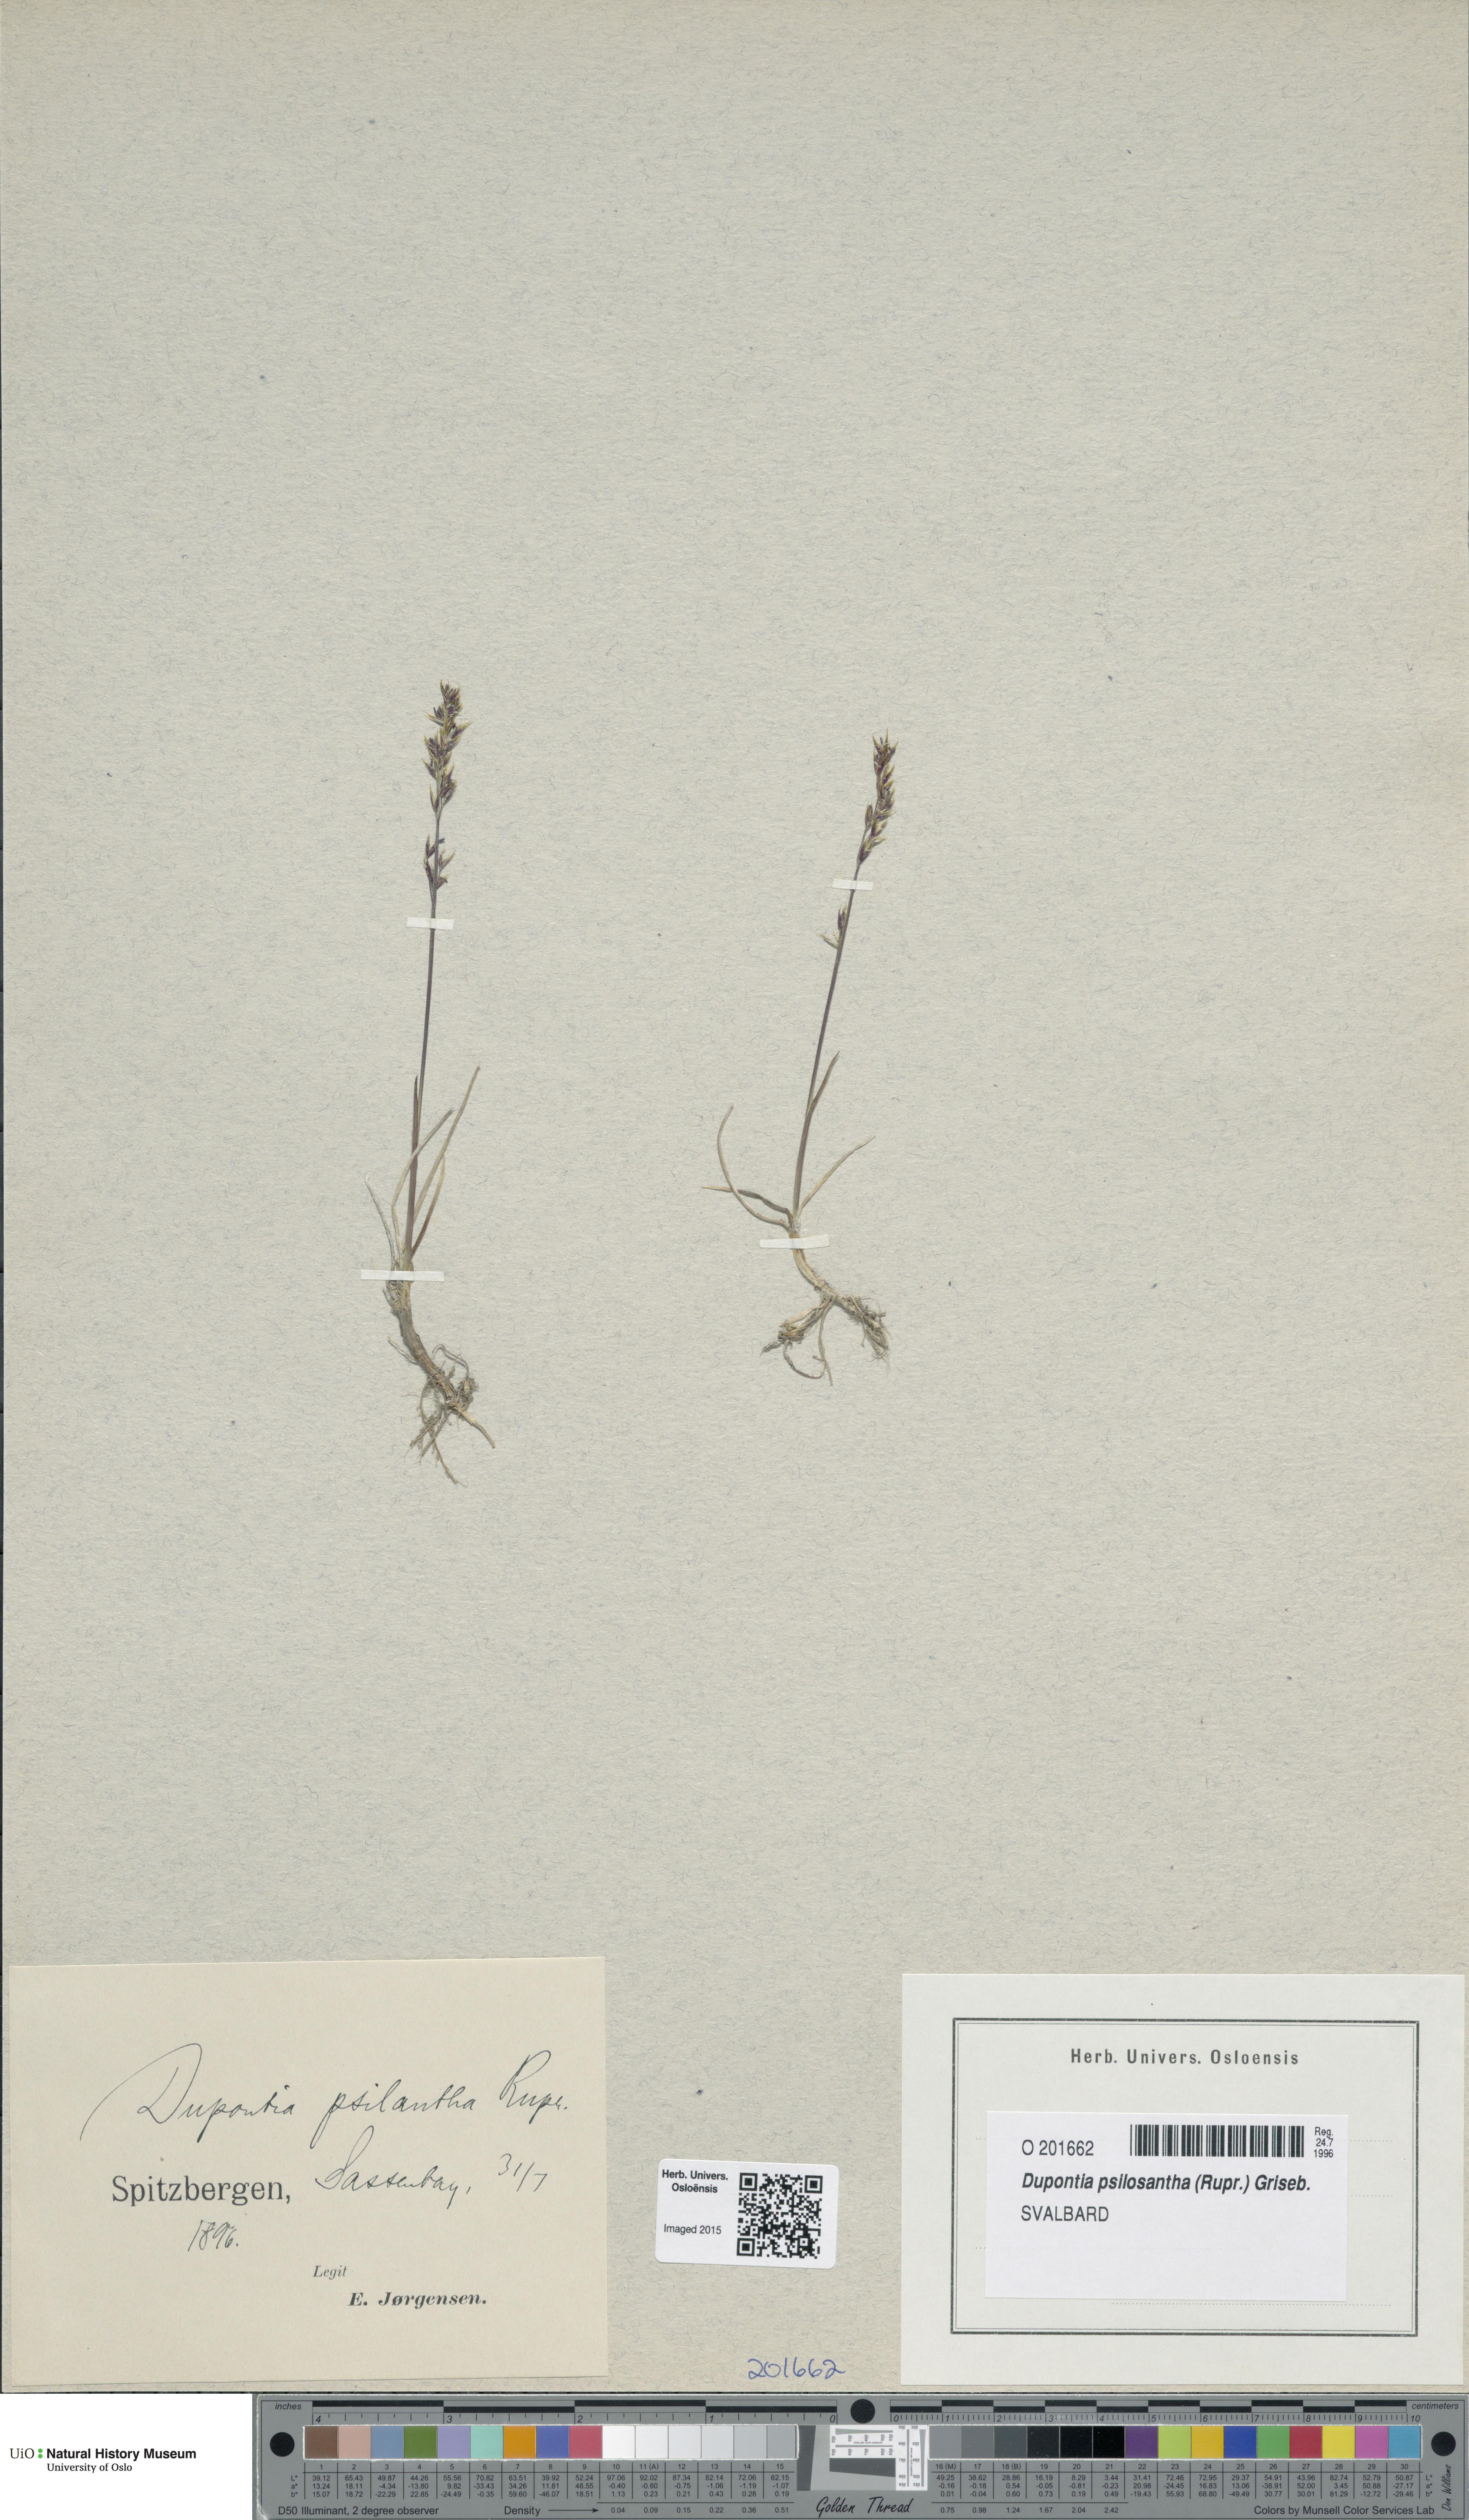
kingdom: Plantae
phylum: Tracheophyta
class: Liliopsida
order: Poales
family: Poaceae
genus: Dupontia
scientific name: Dupontia fisheri
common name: Tundra grass
